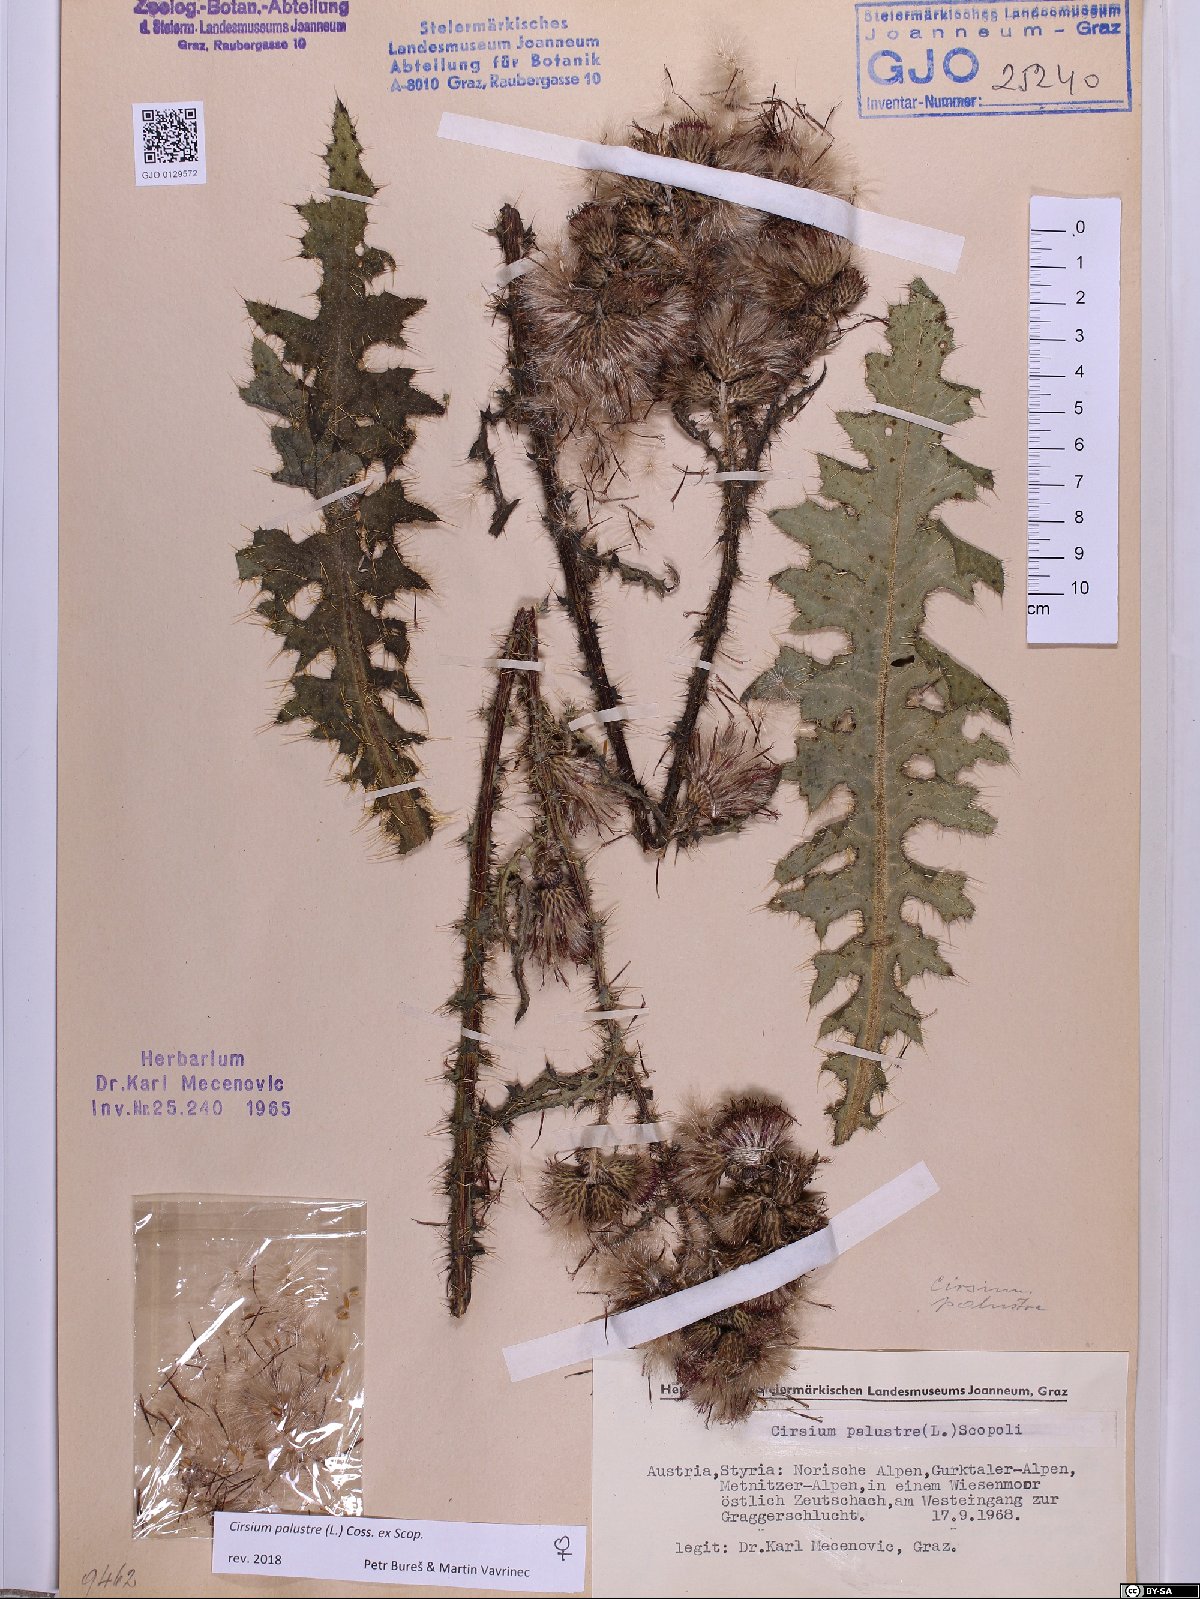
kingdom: Plantae
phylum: Tracheophyta
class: Magnoliopsida
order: Asterales
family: Asteraceae
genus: Cirsium
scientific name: Cirsium palustre
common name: Marsh thistle
